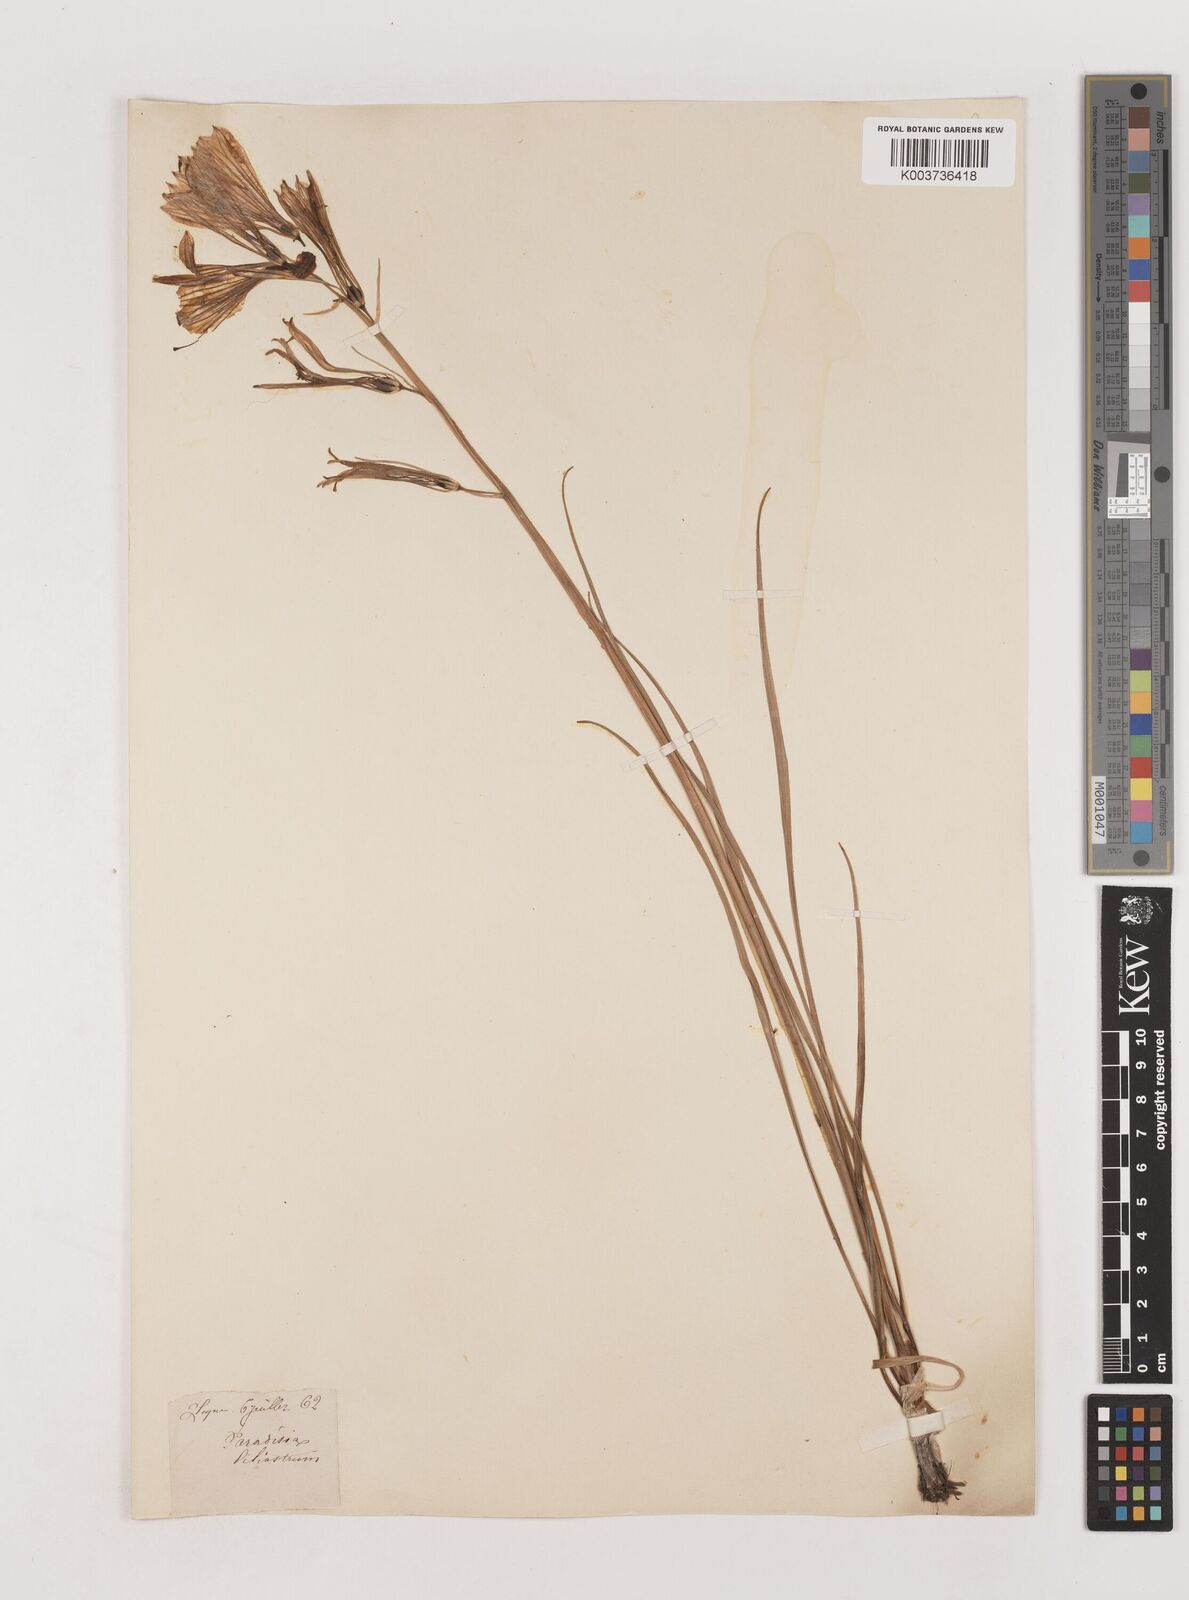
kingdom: Plantae
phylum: Tracheophyta
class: Liliopsida
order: Asparagales
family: Asparagaceae
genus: Paradisea
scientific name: Paradisea liliastrum
